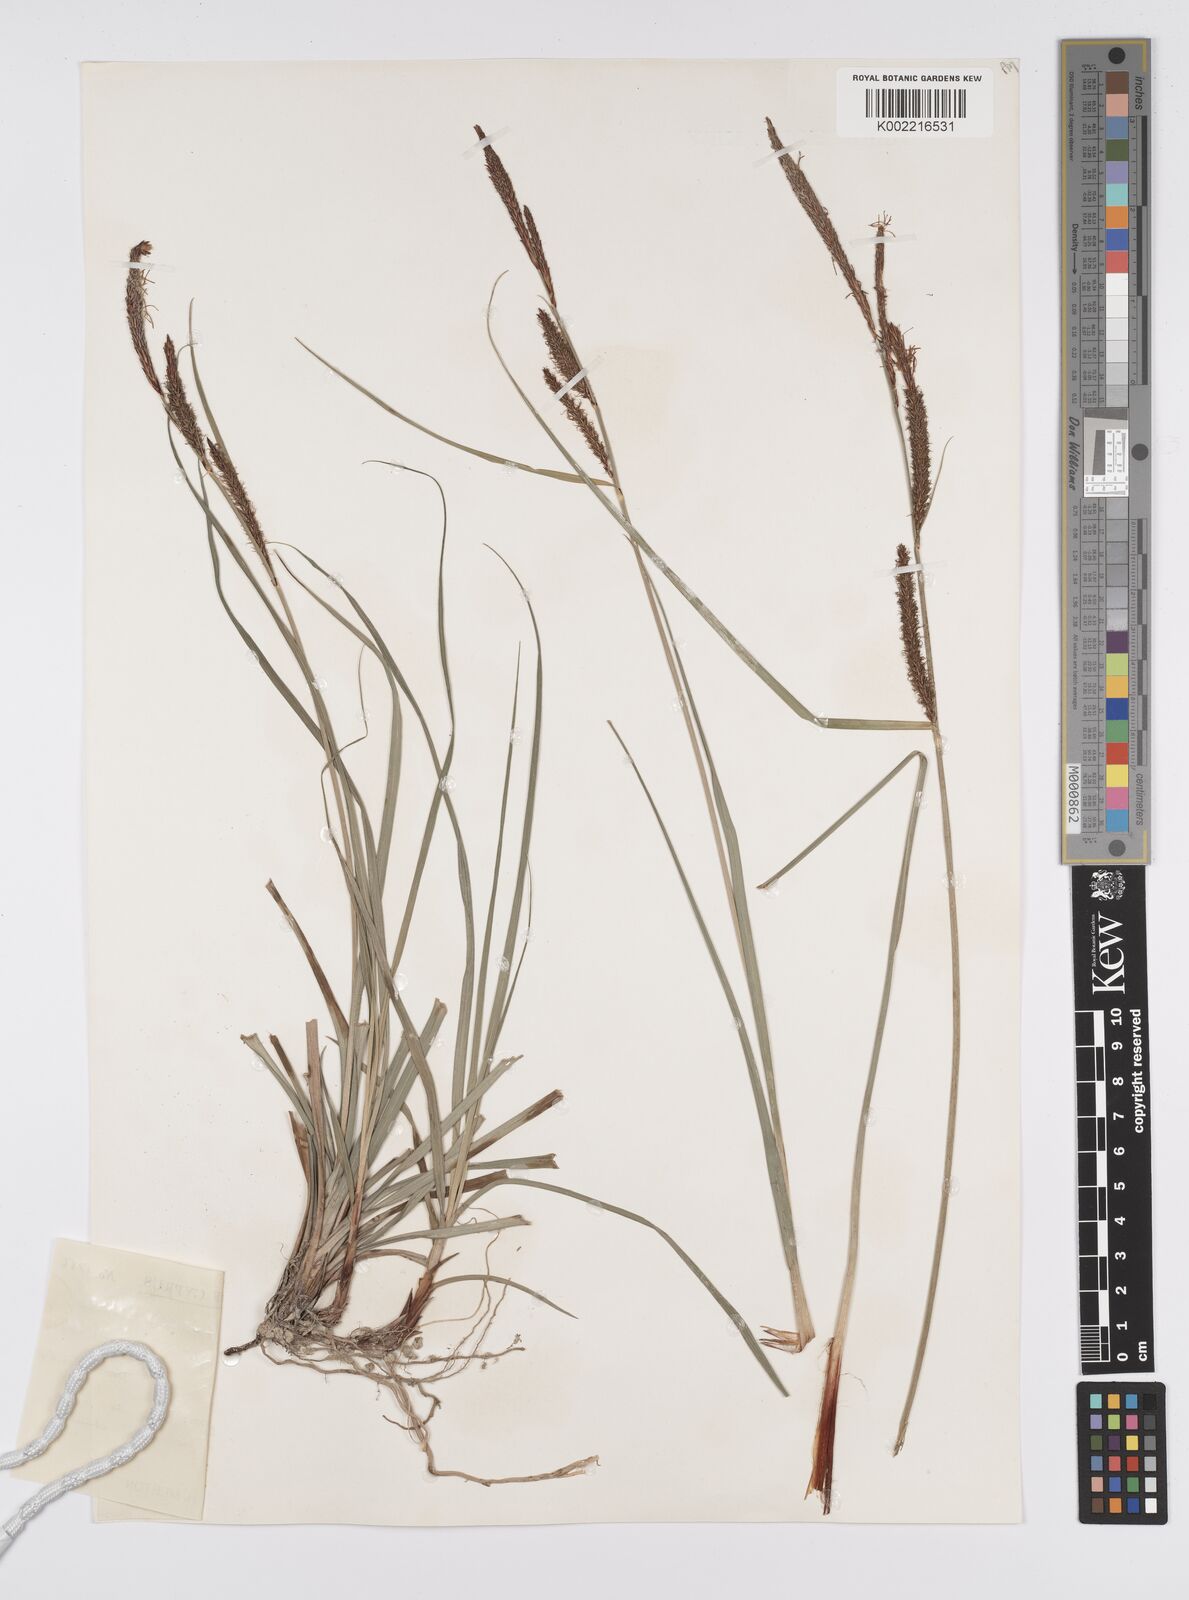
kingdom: Plantae
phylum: Tracheophyta
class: Liliopsida
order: Poales
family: Cyperaceae
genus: Carex
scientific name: Carex flacca
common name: Glaucous sedge
